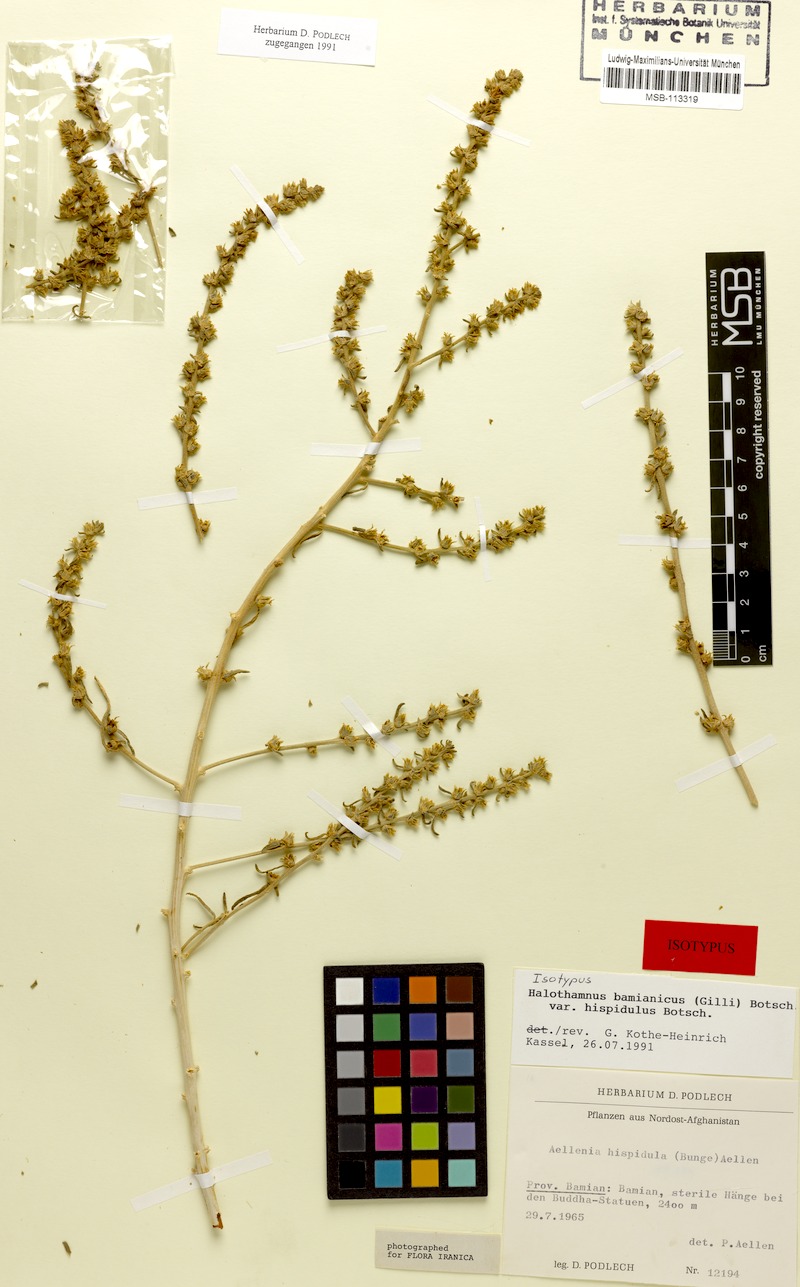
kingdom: Plantae
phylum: Tracheophyta
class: Magnoliopsida
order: Caryophyllales
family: Amaranthaceae
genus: Halothamnus
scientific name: Halothamnus bamianicus
